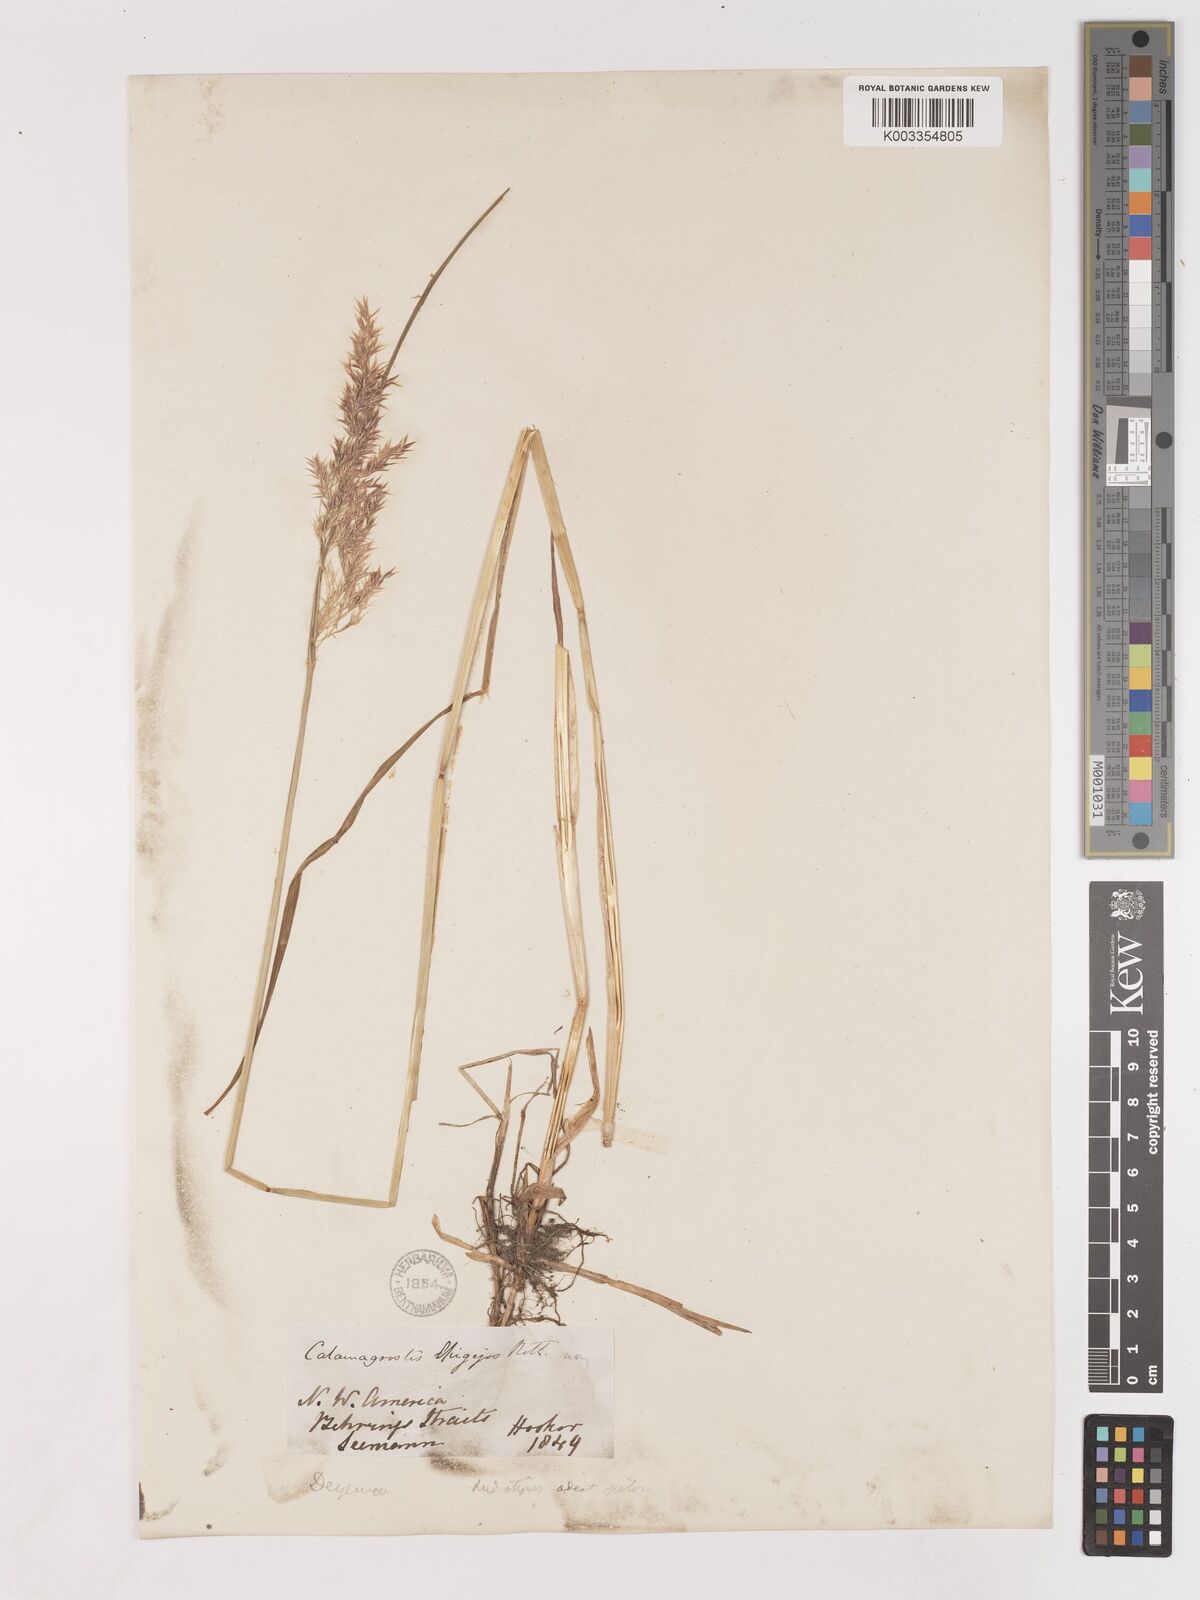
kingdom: Plantae
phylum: Tracheophyta
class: Liliopsida
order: Poales
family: Poaceae
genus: Calamagrostis
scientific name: Calamagrostis
